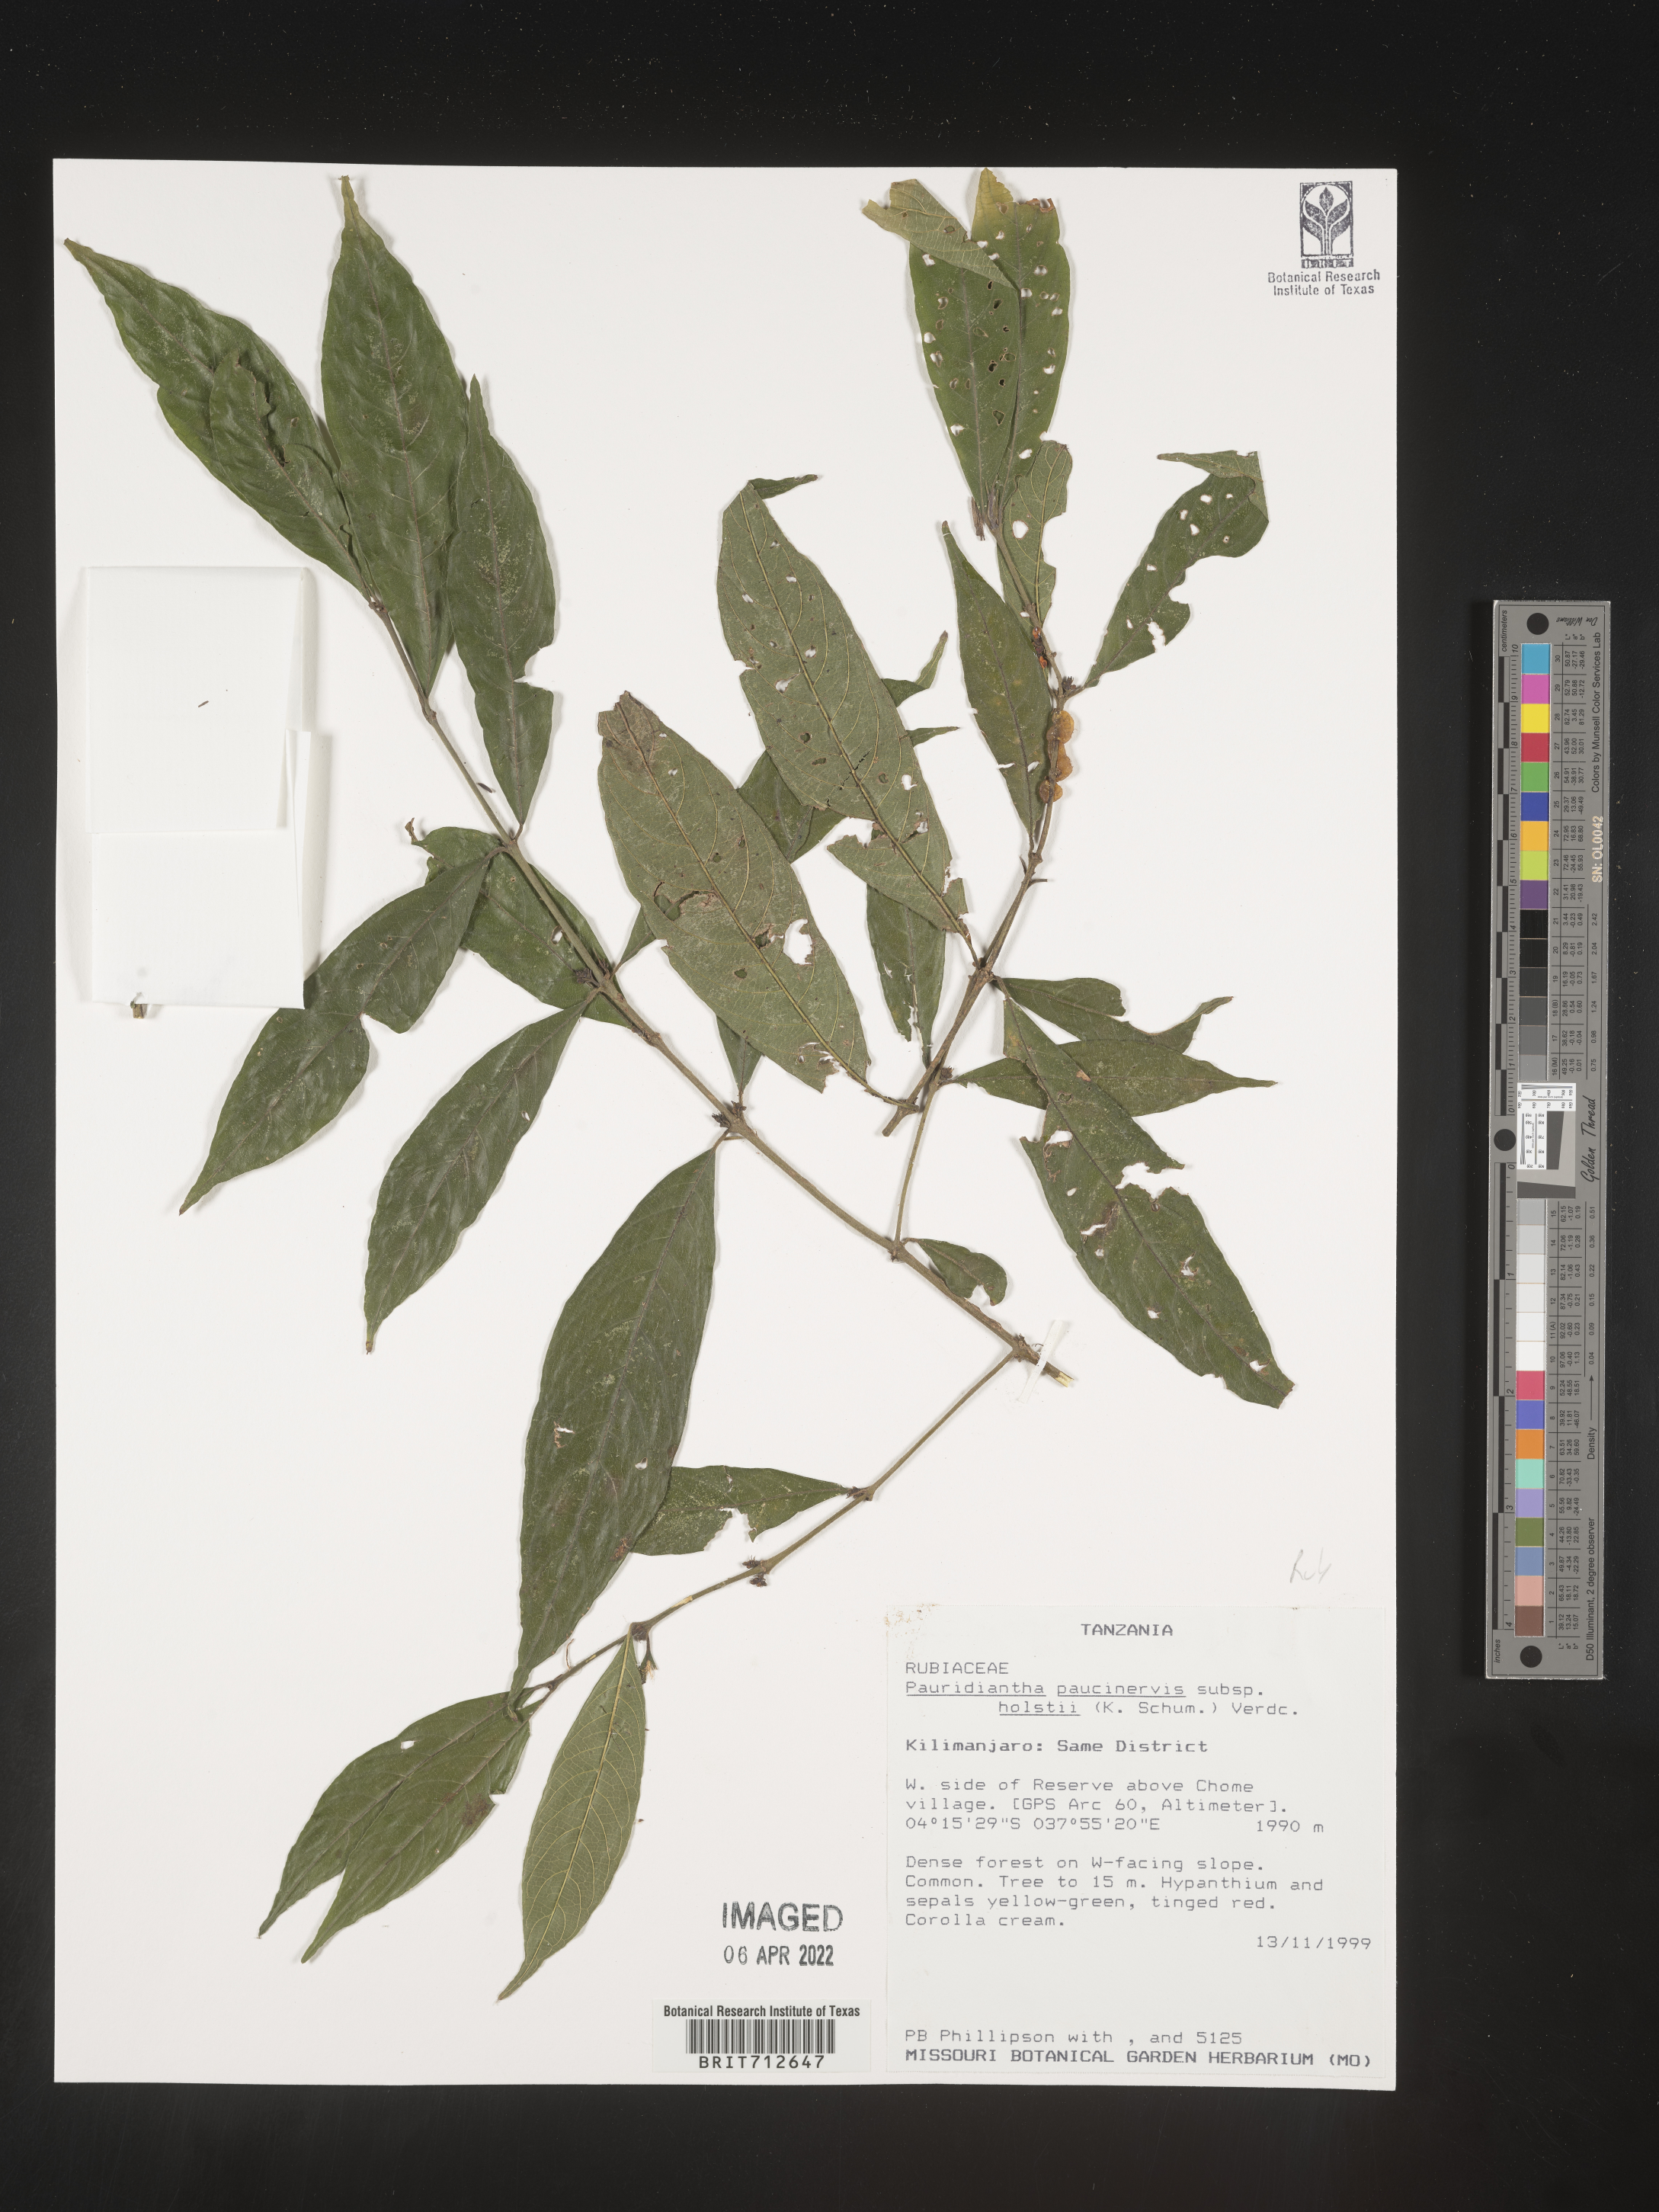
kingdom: Plantae
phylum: Tracheophyta
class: Magnoliopsida
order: Gentianales
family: Rubiaceae
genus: Pauridiantha
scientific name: Pauridiantha
